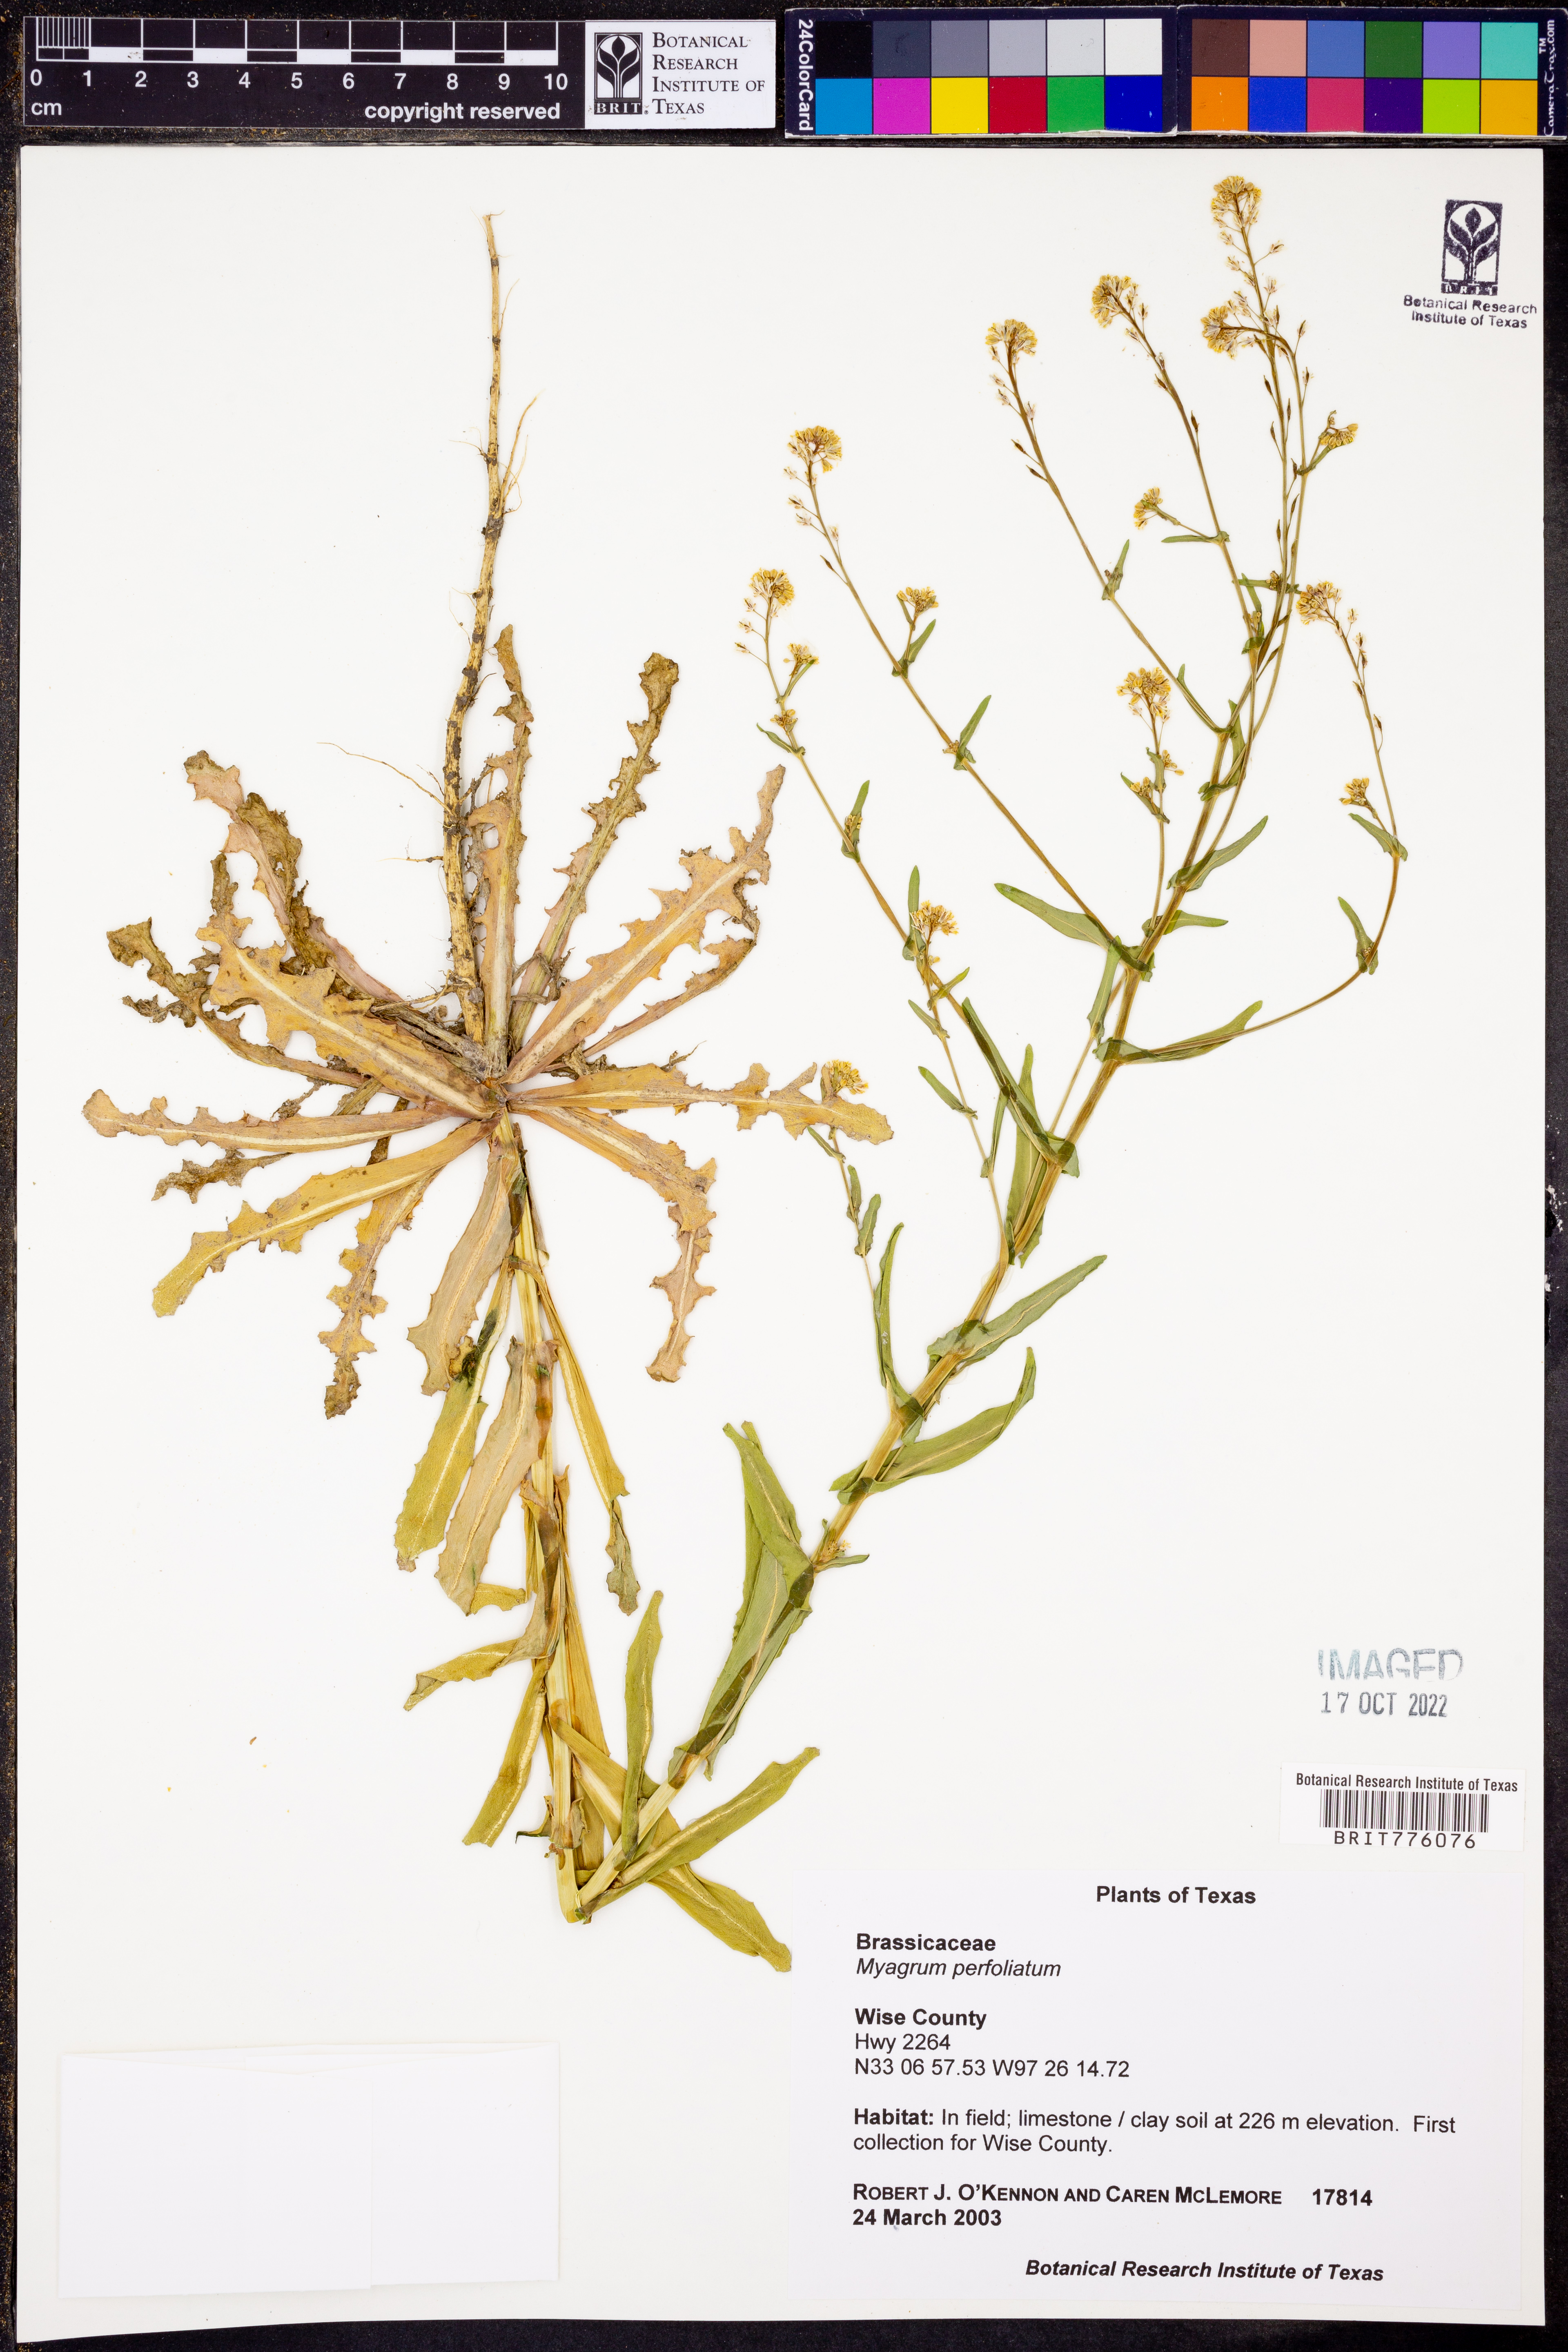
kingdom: Plantae
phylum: Tracheophyta
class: Magnoliopsida
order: Brassicales
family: Brassicaceae
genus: Myagrum
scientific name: Myagrum perfoliatum
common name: Mitre cress
